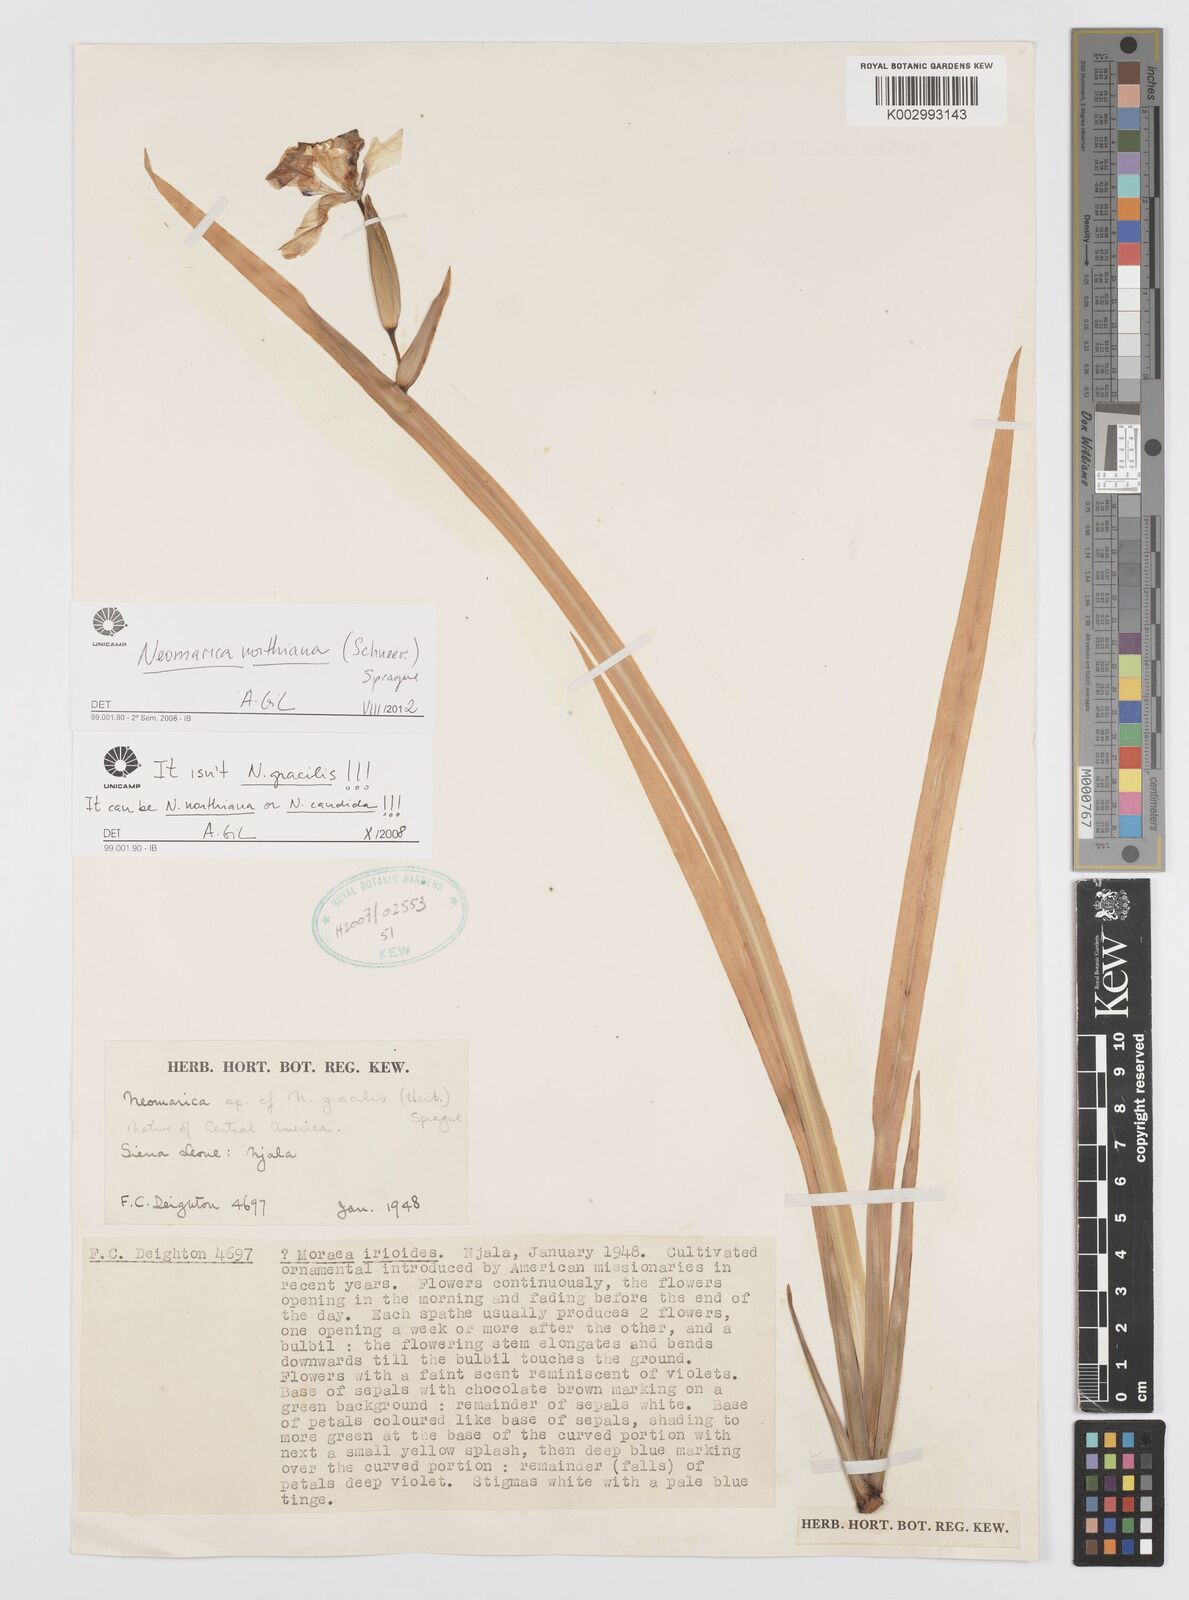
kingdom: Plantae
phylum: Tracheophyta
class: Liliopsida
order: Asparagales
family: Iridaceae
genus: Trimezia
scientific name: Trimezia northiana
